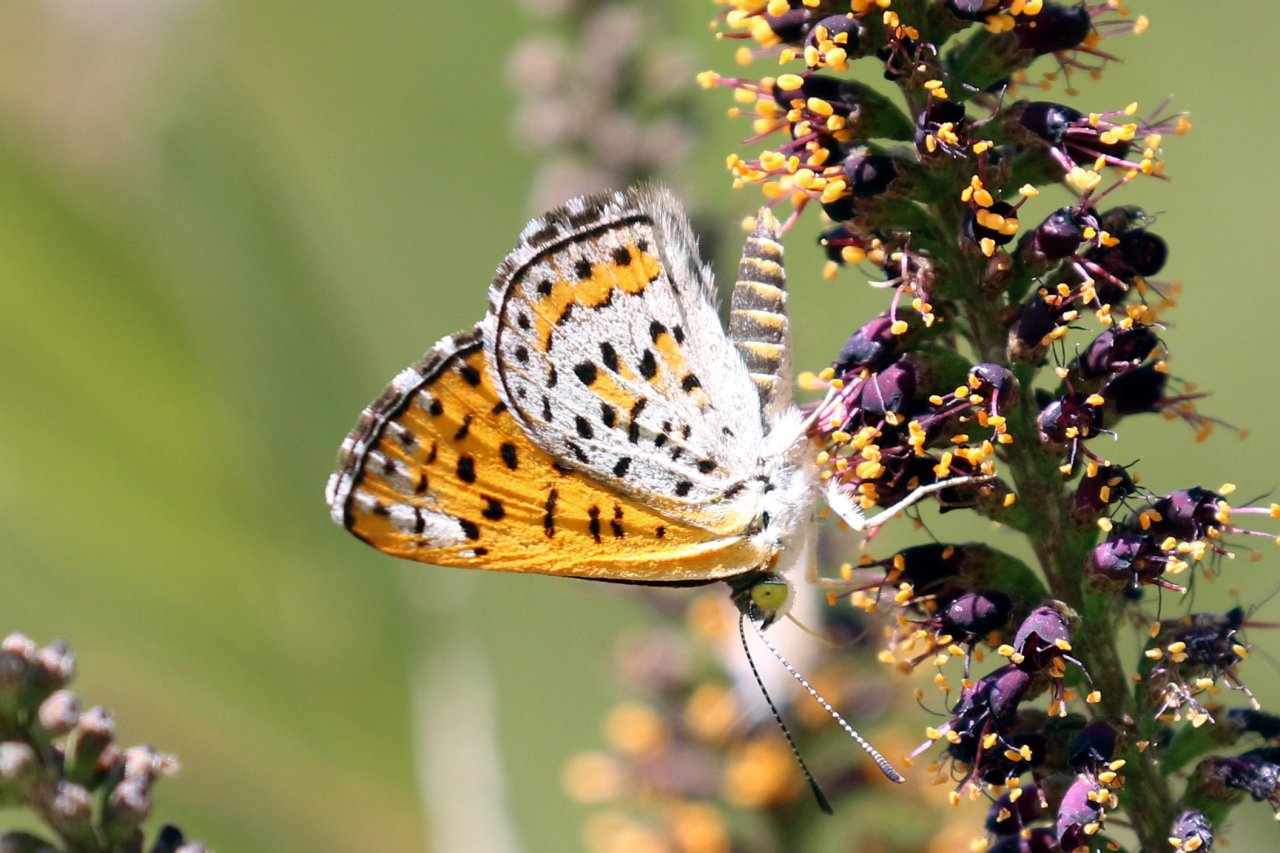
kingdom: Animalia
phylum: Arthropoda
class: Insecta
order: Lepidoptera
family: Riodinidae
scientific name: Riodinidae
